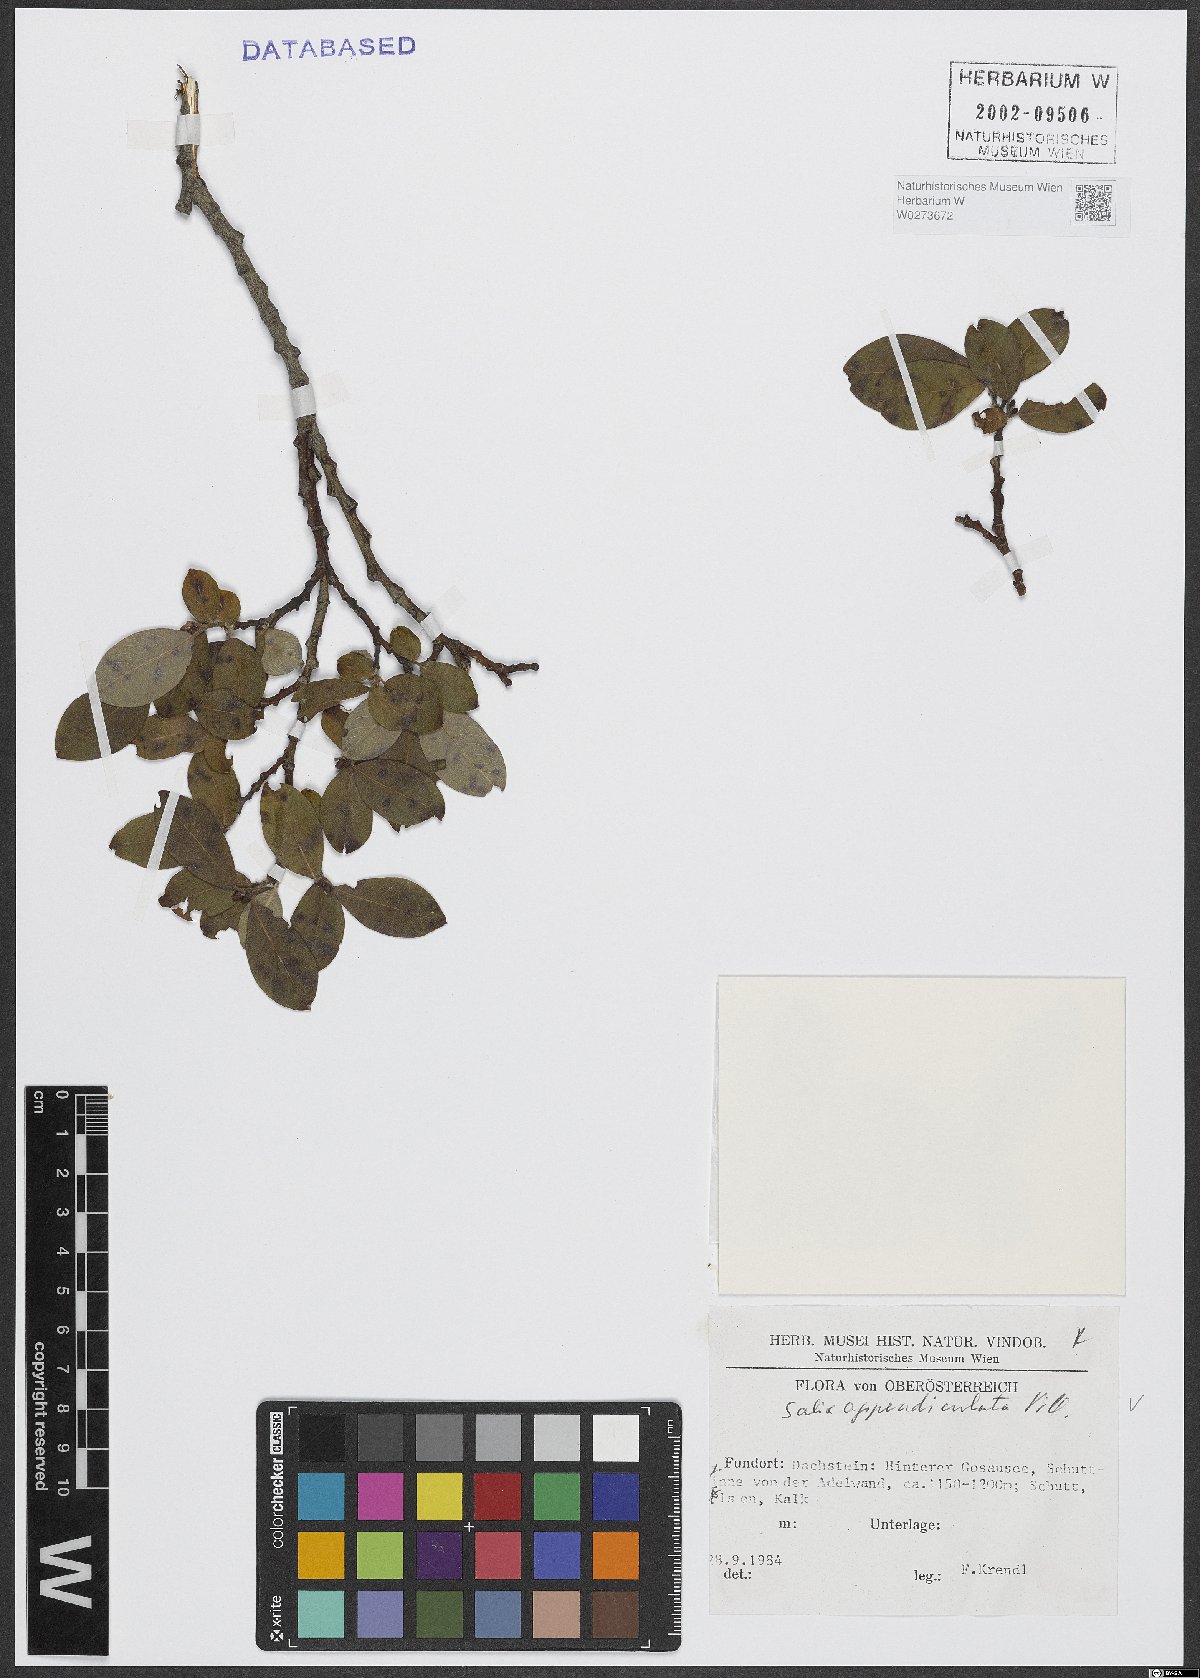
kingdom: Plantae
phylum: Tracheophyta
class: Magnoliopsida
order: Malpighiales
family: Salicaceae
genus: Salix
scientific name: Salix appendiculata
